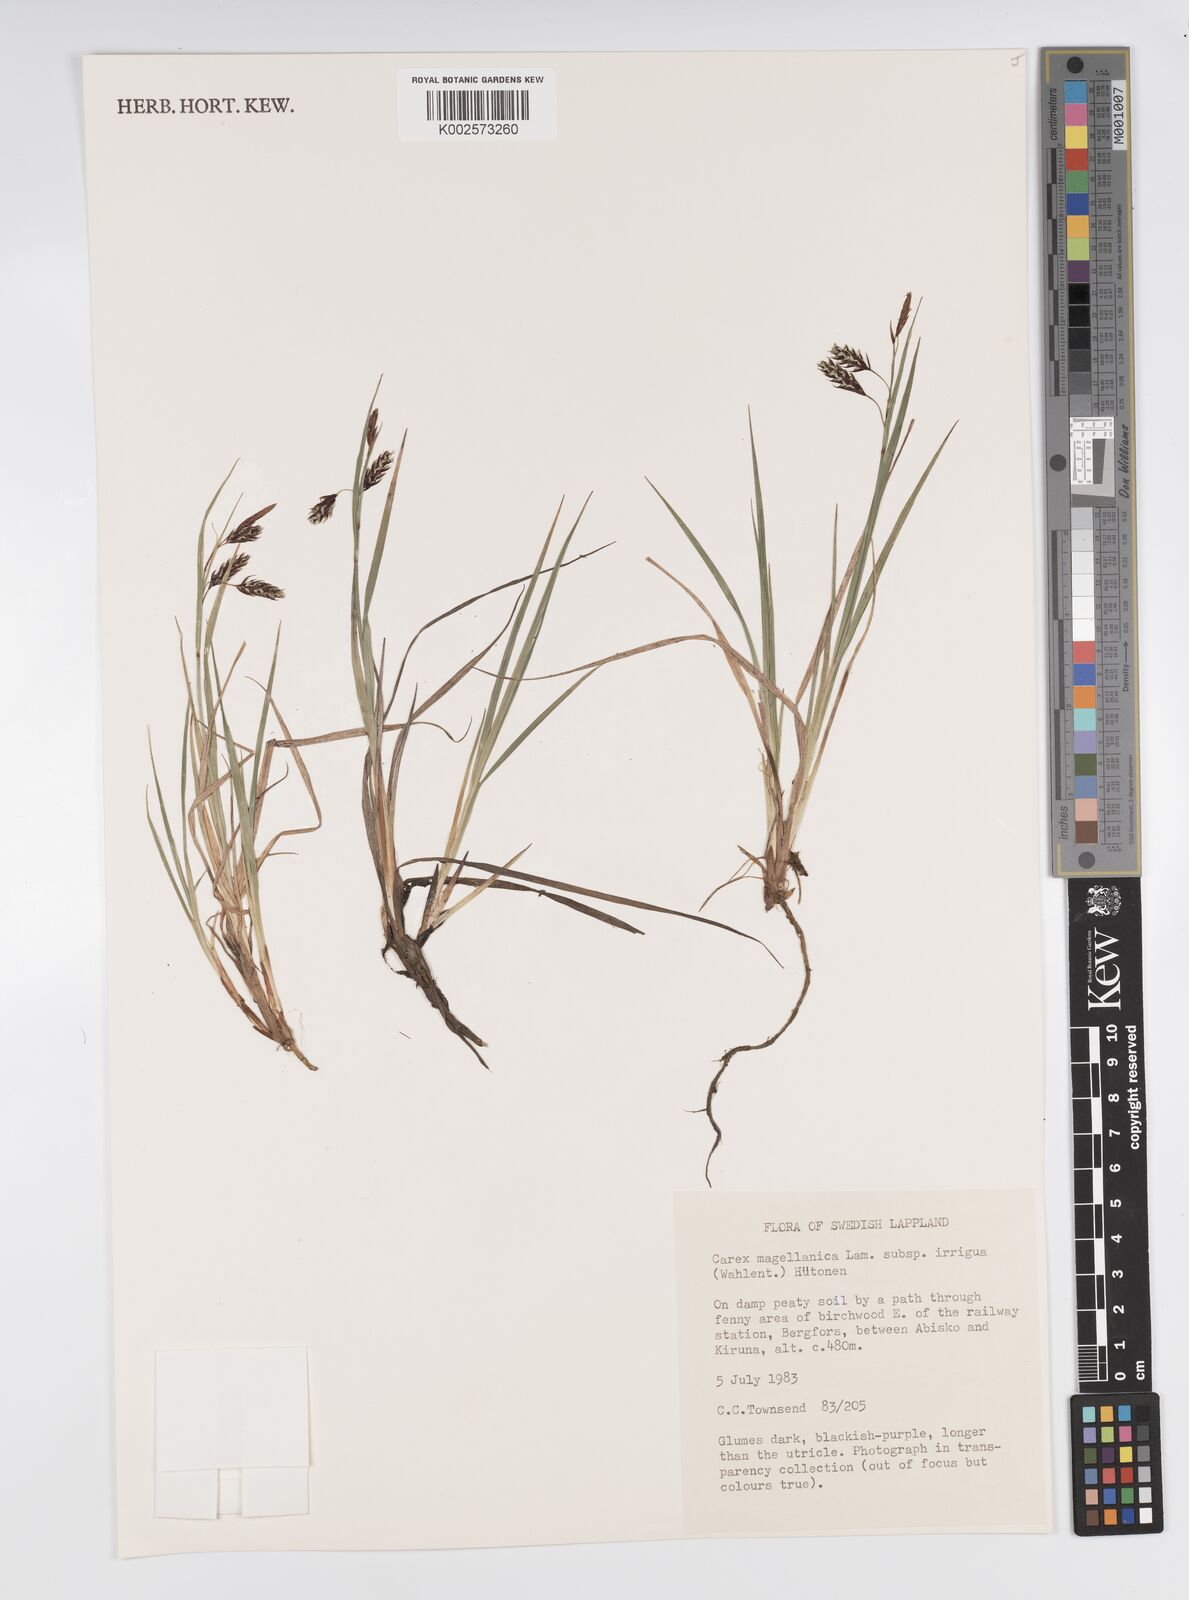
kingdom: Plantae
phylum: Tracheophyta
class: Liliopsida
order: Poales
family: Cyperaceae
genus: Carex
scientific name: Carex magellanica
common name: Bog sedge
